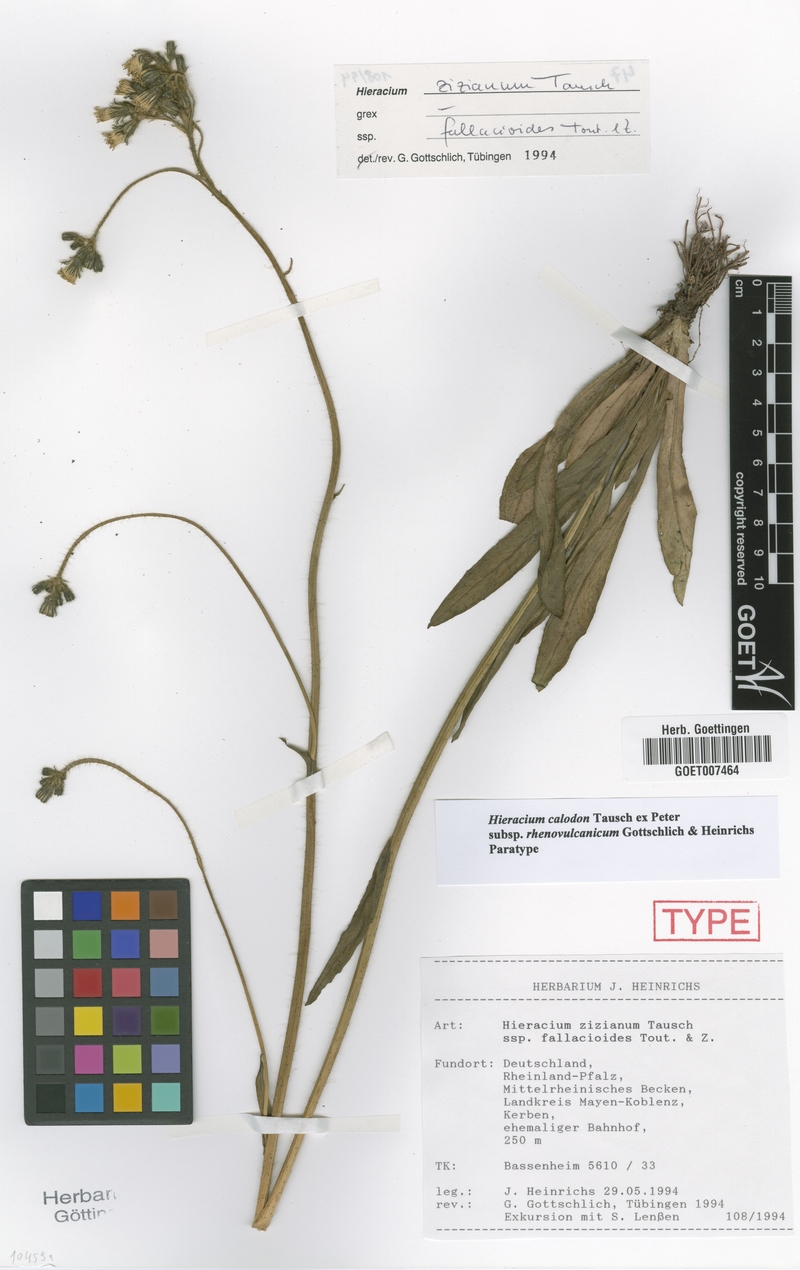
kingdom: Plantae
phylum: Tracheophyta
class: Magnoliopsida
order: Asterales
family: Asteraceae
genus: Pilosella
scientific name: Pilosella calodon
